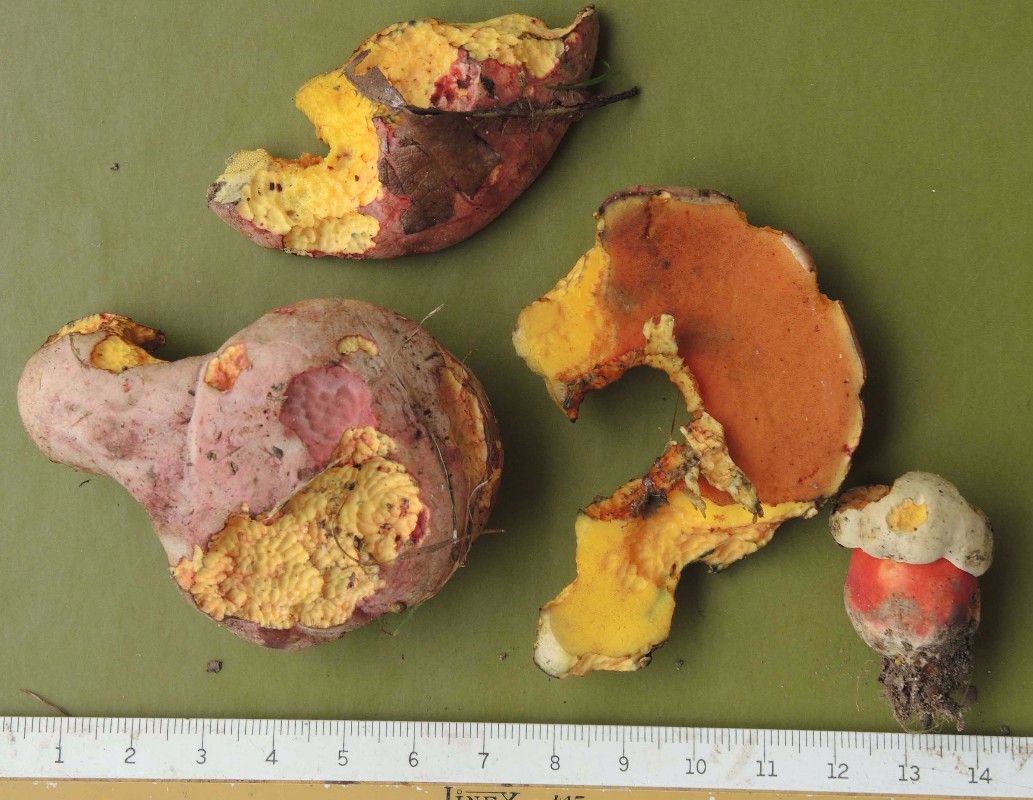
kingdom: Fungi
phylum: Basidiomycota
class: Agaricomycetes
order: Boletales
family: Boletaceae
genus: Rubroboletus
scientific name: Rubroboletus legaliae
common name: djævle-rørhat
